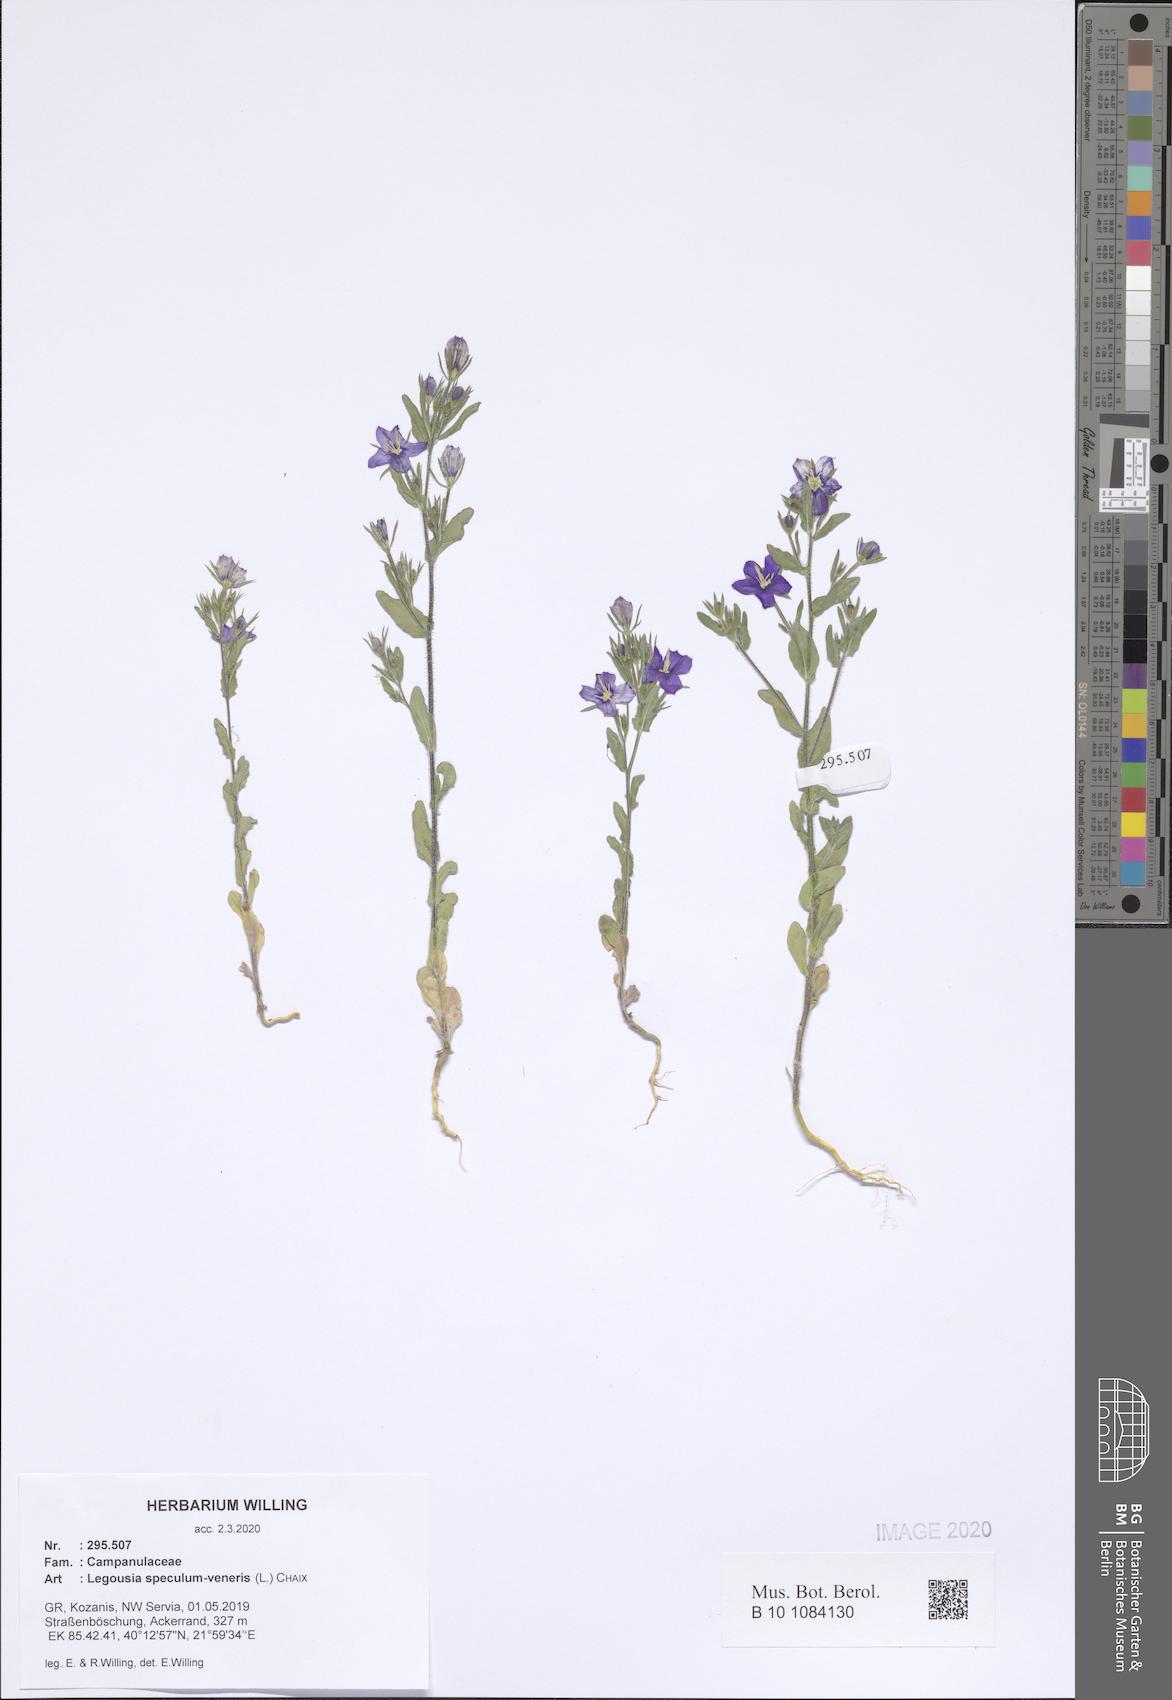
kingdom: Plantae
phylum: Tracheophyta
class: Magnoliopsida
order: Asterales
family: Campanulaceae
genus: Legousia
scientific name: Legousia speculum-veneris
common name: Large venus's-looking-glass
